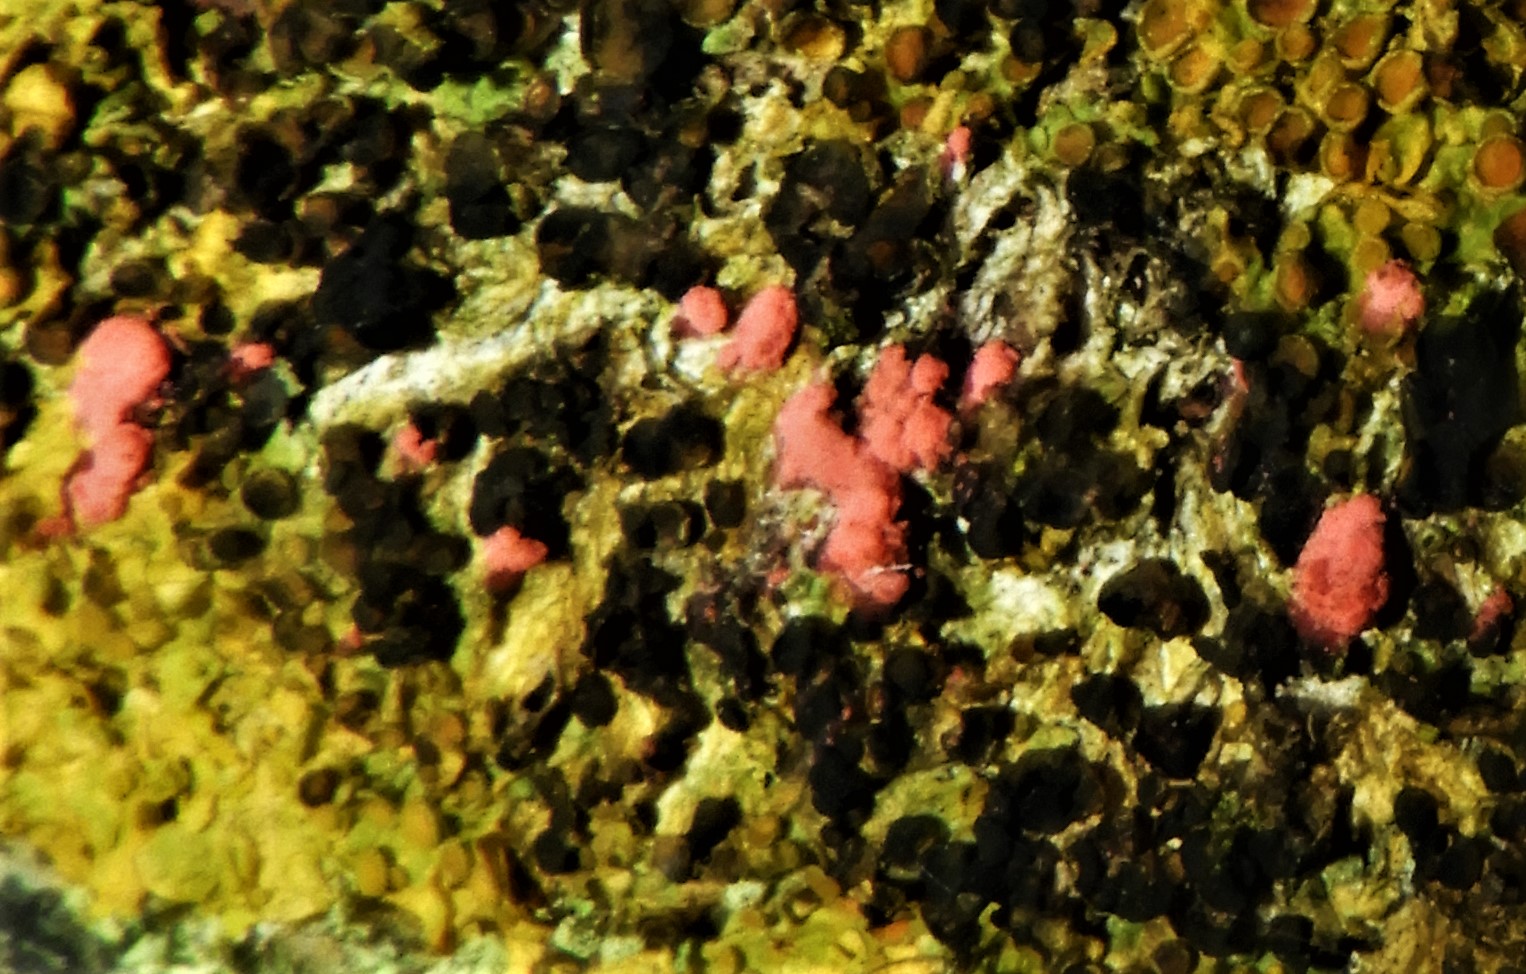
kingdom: Fungi
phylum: Ascomycota
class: Sordariomycetes
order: Hypocreales
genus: Illosporiopsis
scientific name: Illosporiopsis christiansenii
